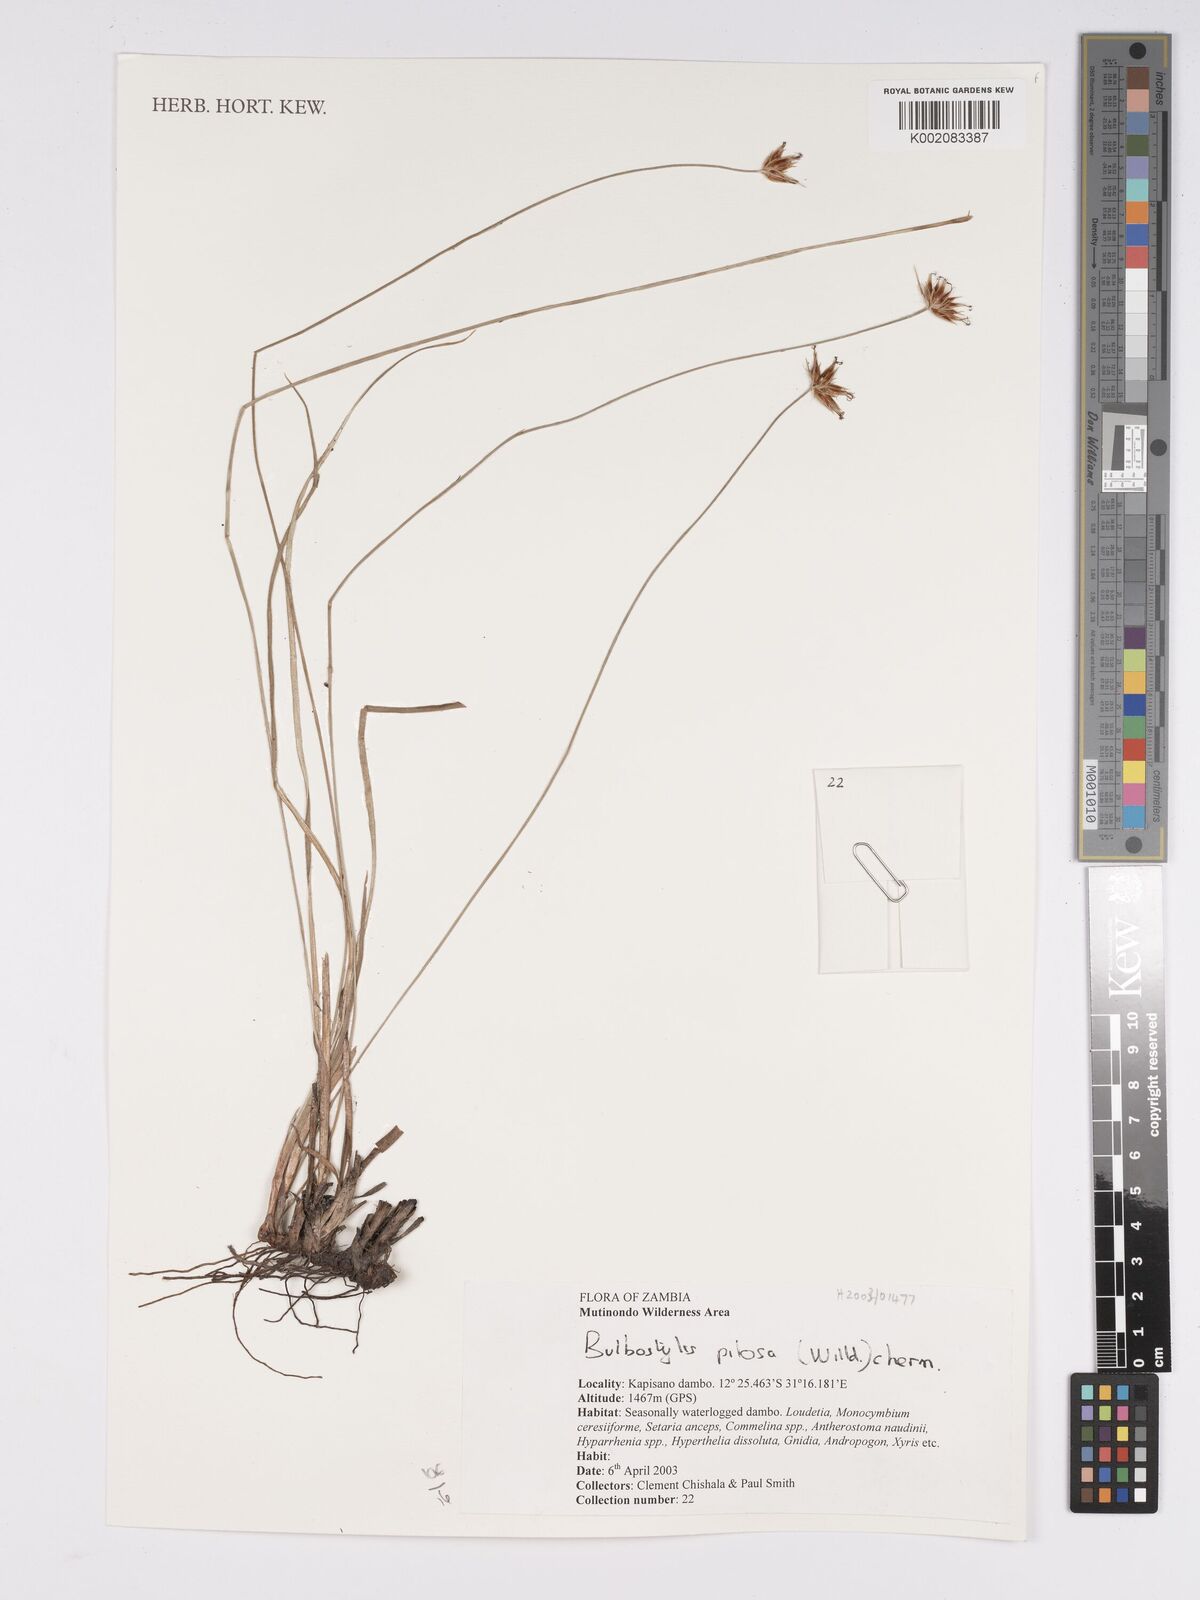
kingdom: Plantae
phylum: Tracheophyta
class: Liliopsida
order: Poales
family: Cyperaceae
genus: Bulbostylis
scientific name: Bulbostylis pilosa
